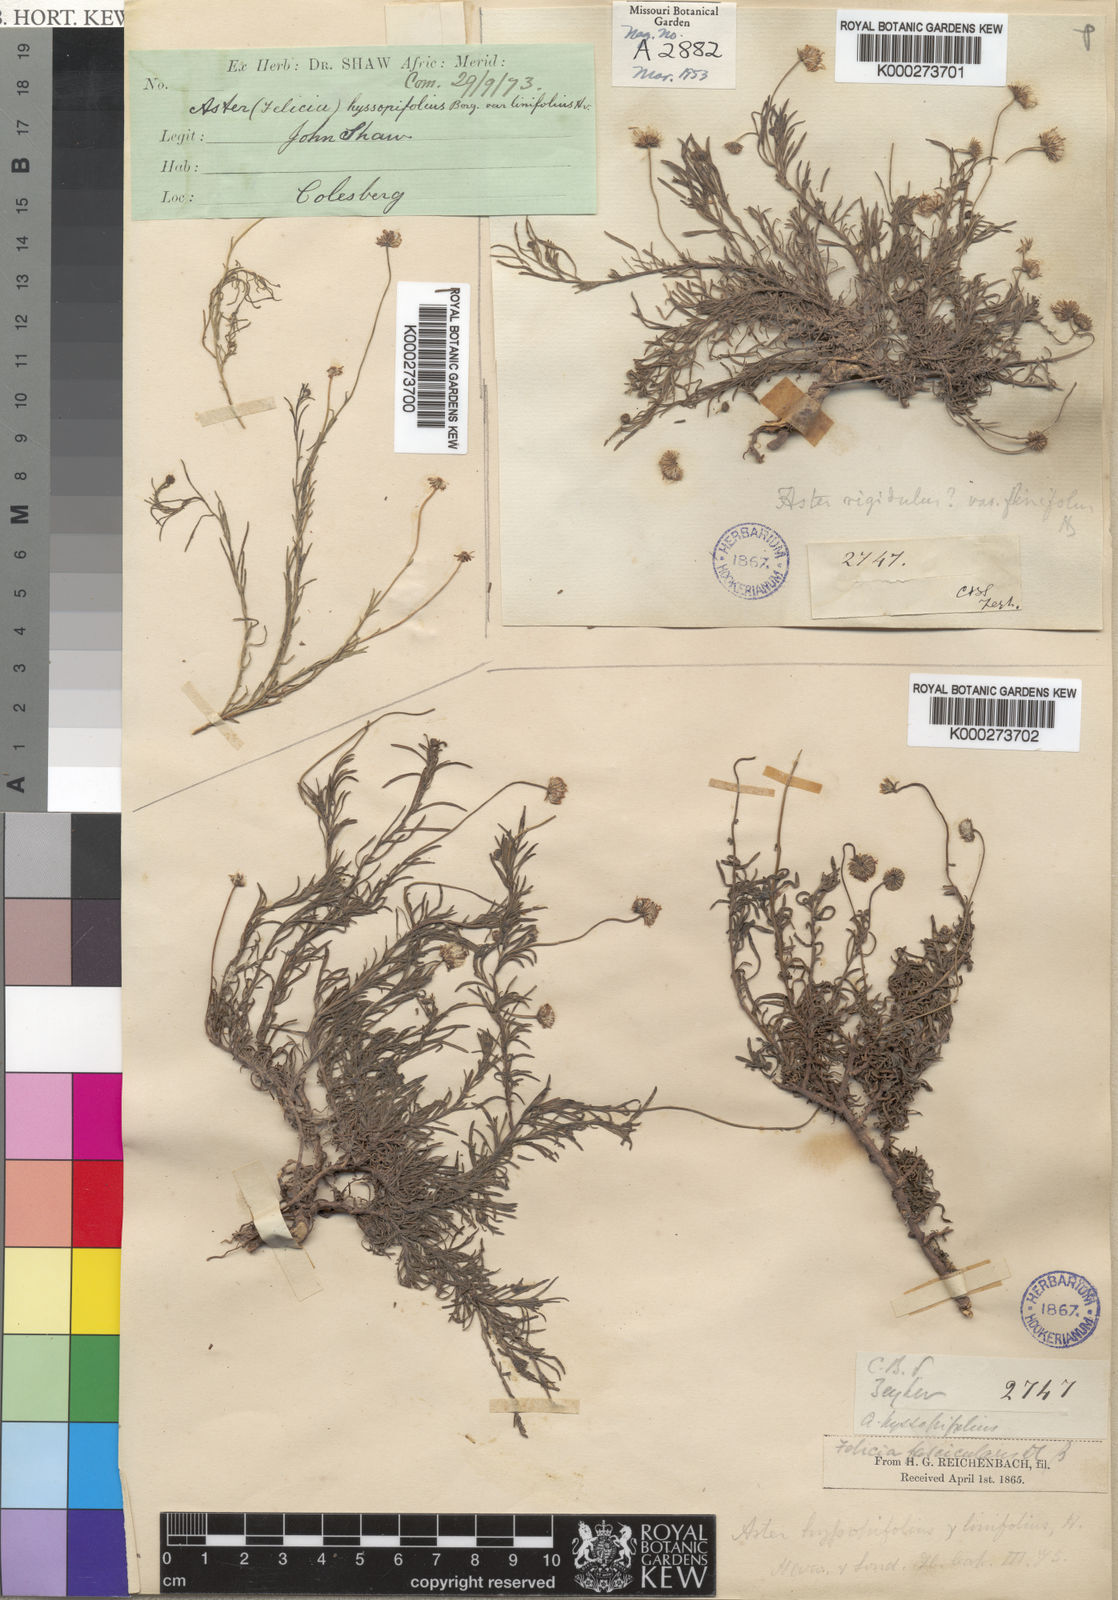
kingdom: Plantae
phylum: Tracheophyta
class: Magnoliopsida
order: Asterales
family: Asteraceae
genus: Felicia
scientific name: Felicia hyssopifolia
